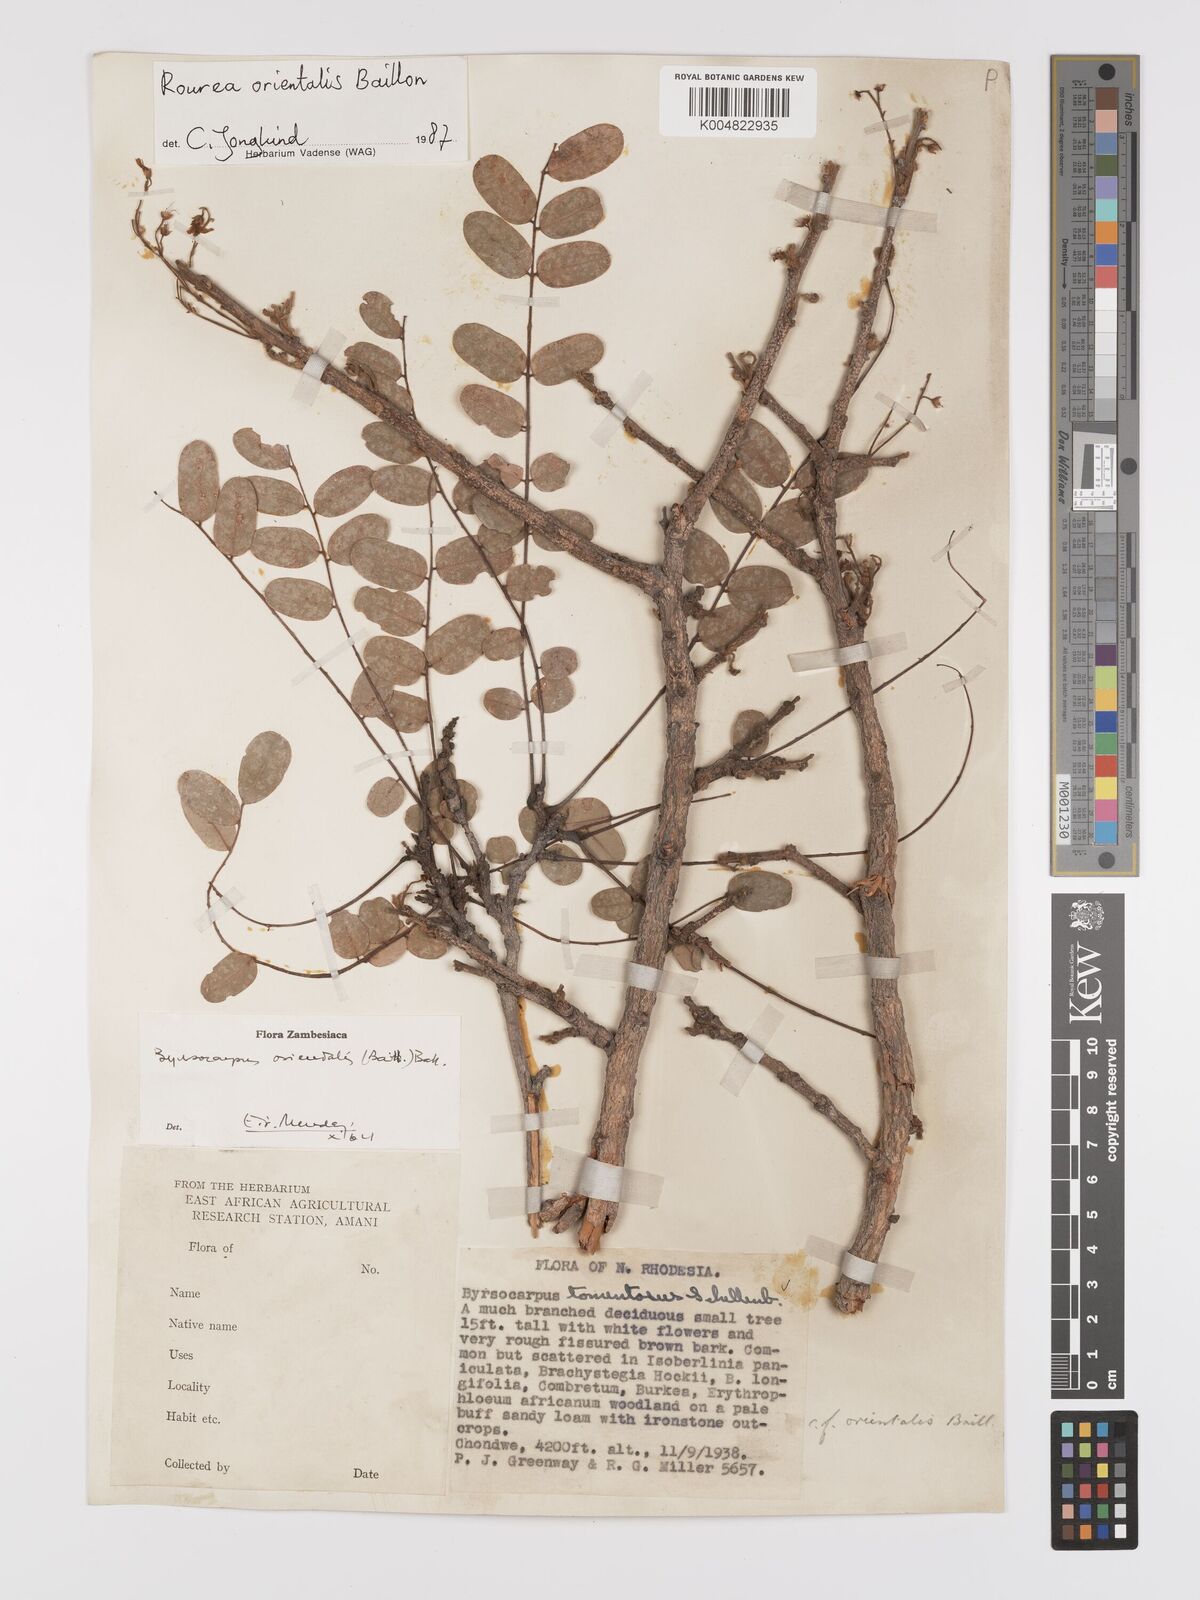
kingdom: Plantae
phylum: Tracheophyta
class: Magnoliopsida
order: Oxalidales
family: Connaraceae
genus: Rourea
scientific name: Rourea orientalis
